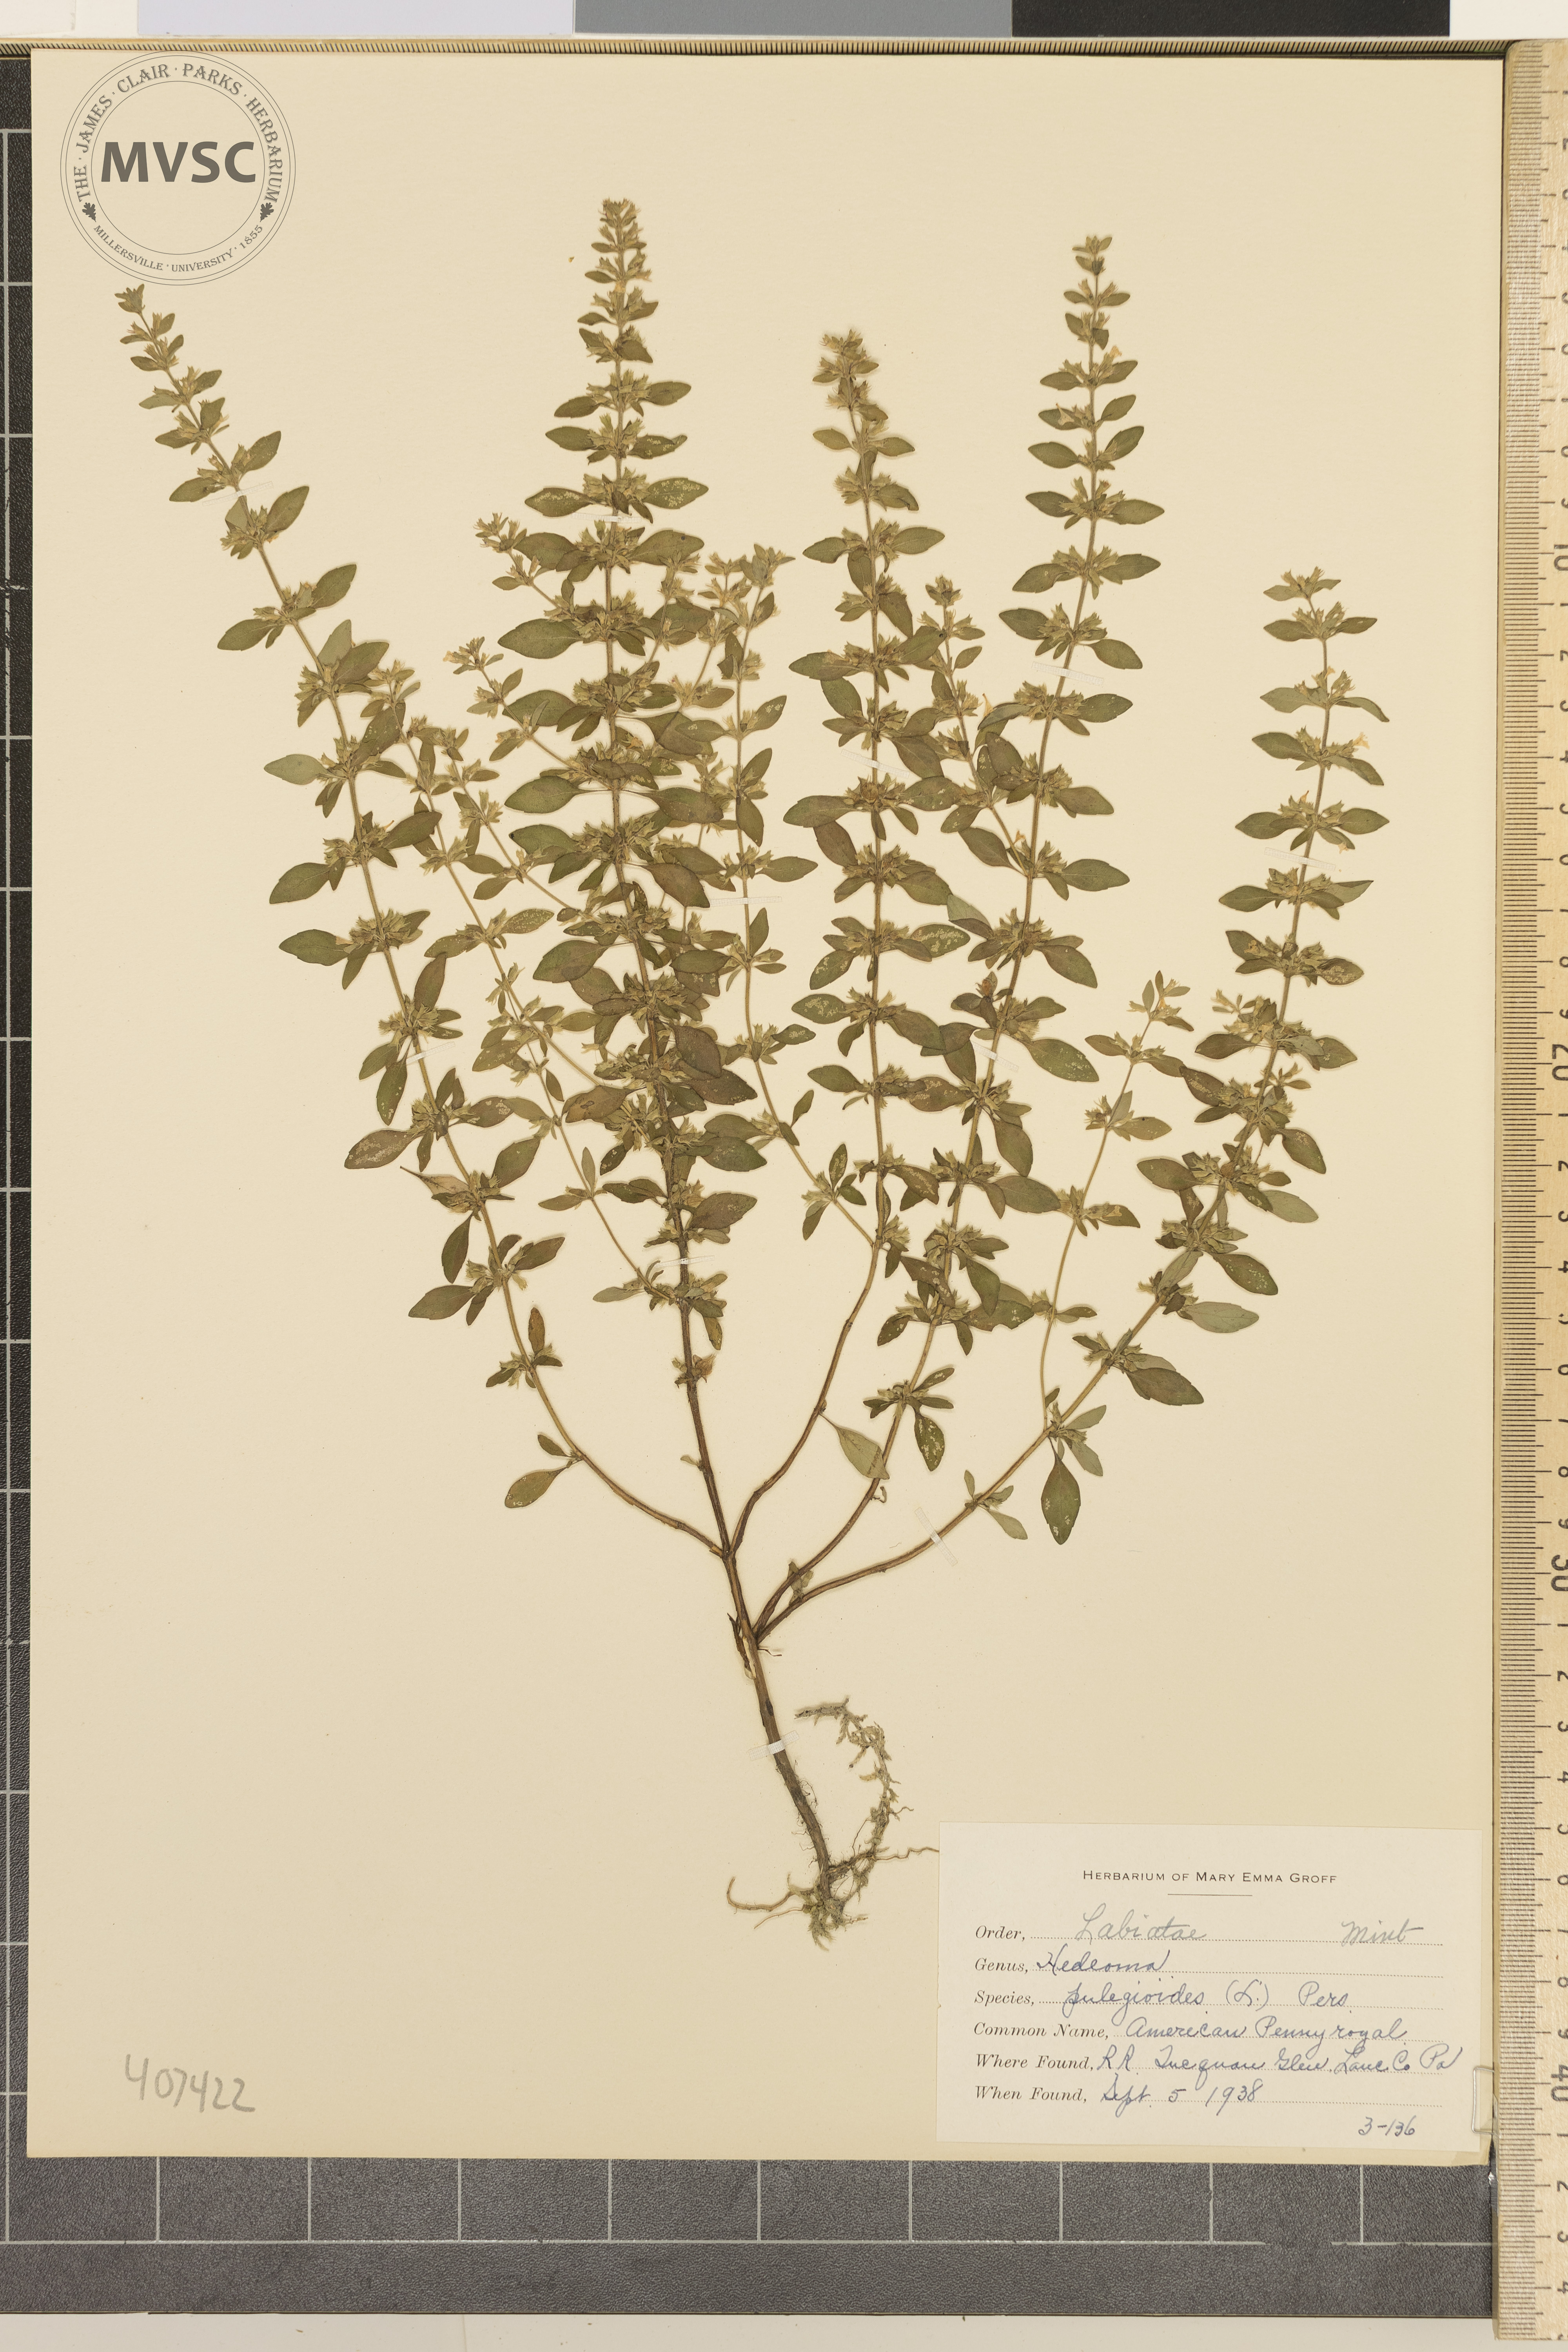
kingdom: Plantae
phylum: Tracheophyta
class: Magnoliopsida
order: Lamiales
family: Lamiaceae
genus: Hedeoma
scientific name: Hedeoma pulegioides
